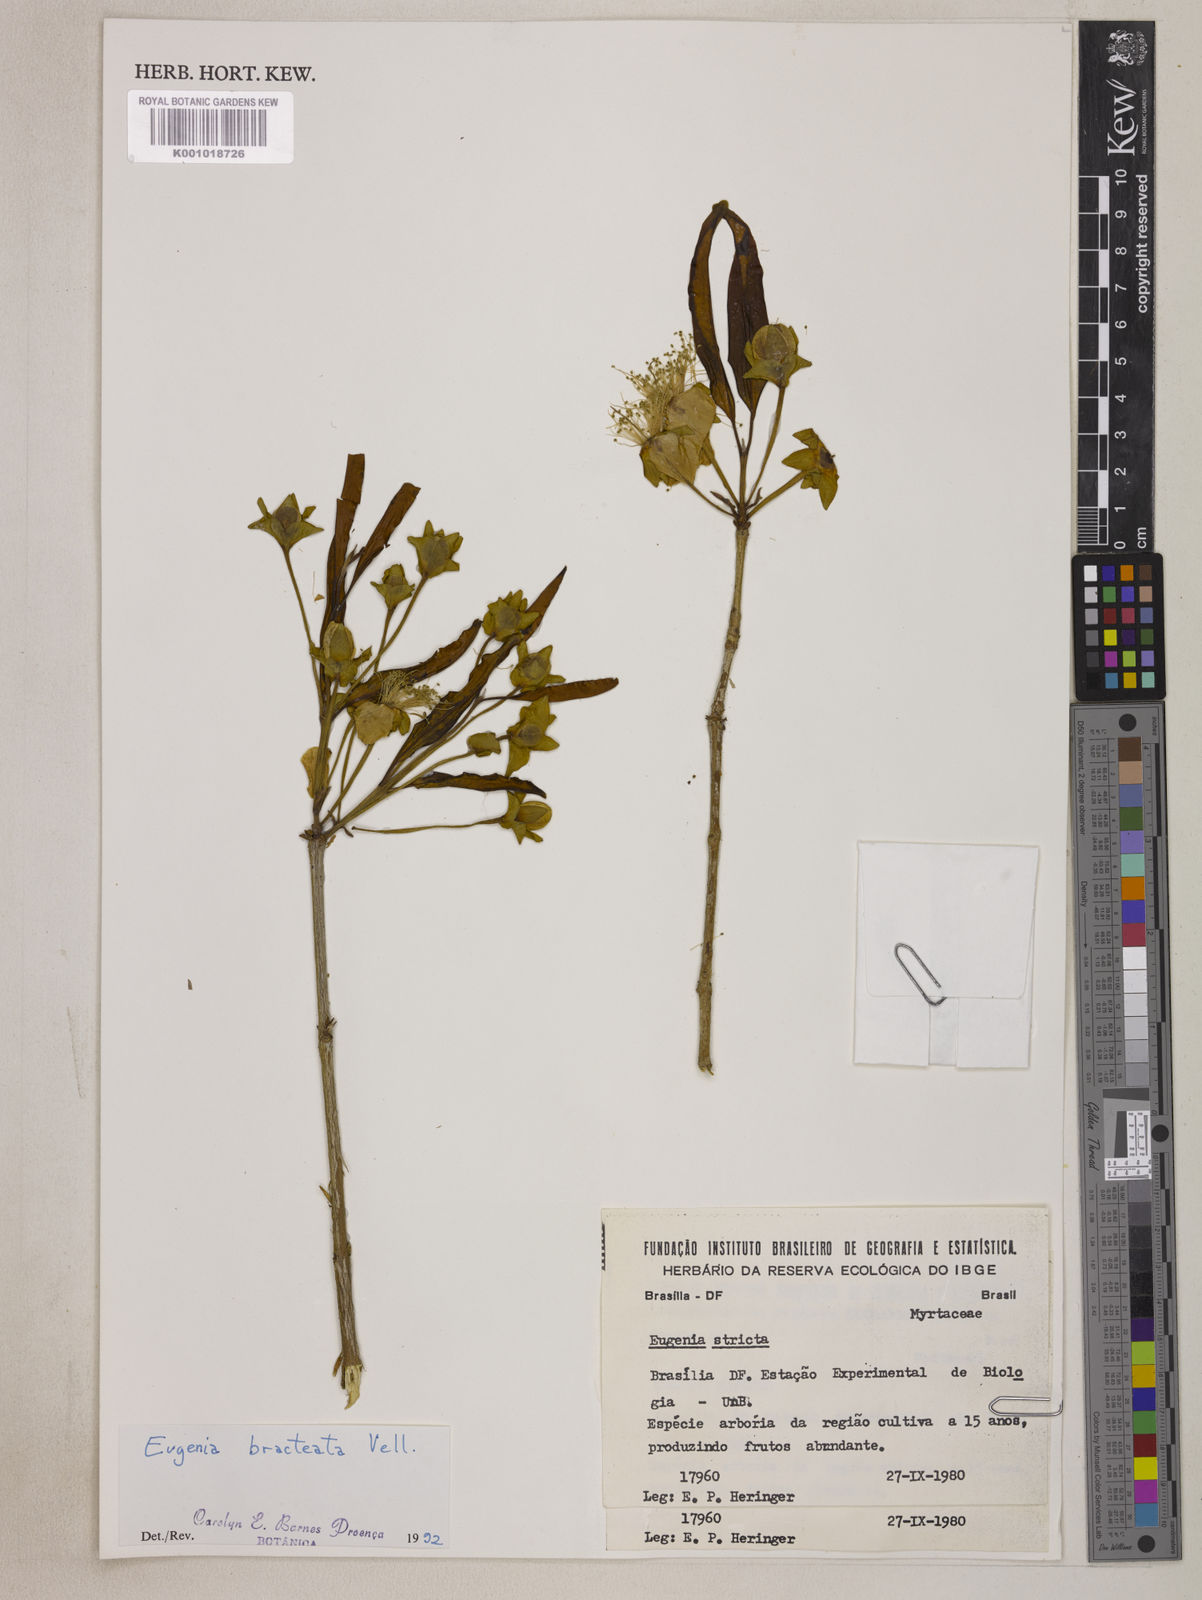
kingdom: Plantae
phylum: Tracheophyta
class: Magnoliopsida
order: Myrtales
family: Myrtaceae
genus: Eugenia
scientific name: Eugenia involucrata
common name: Cherry-of-the-rio grande
